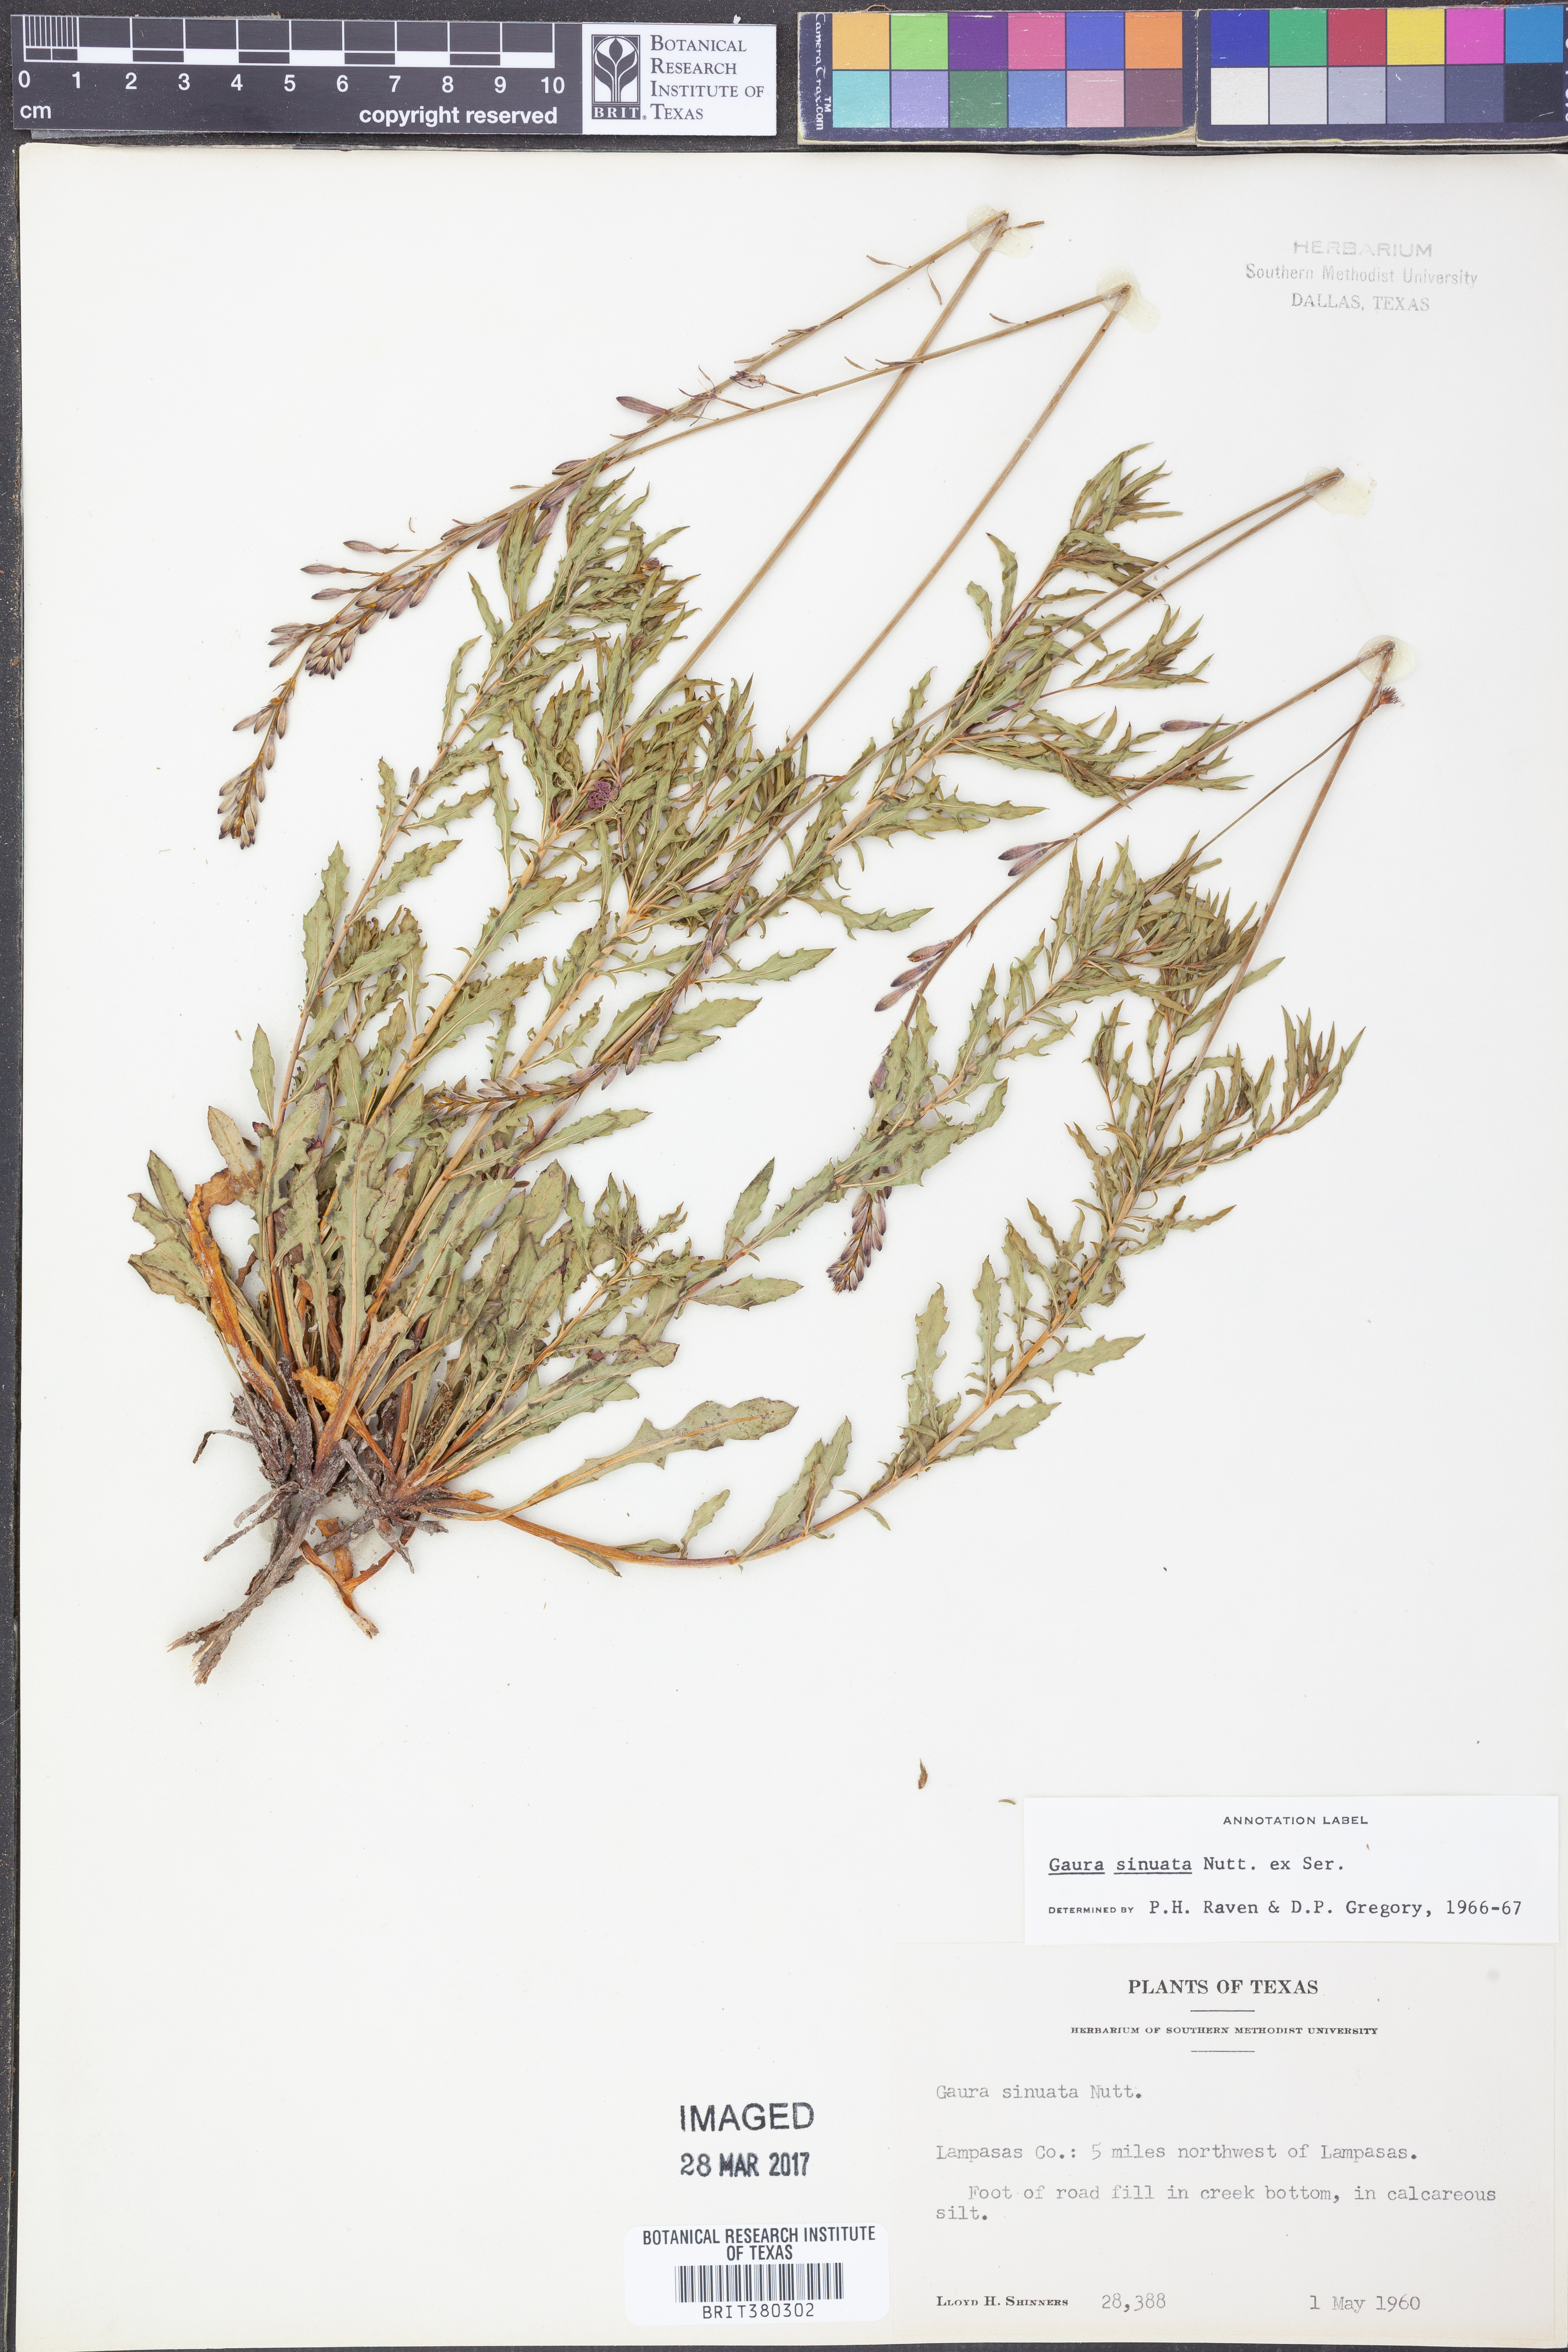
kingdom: Plantae
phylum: Tracheophyta
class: Magnoliopsida
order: Myrtales
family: Onagraceae
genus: Oenothera
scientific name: Oenothera sinuosa
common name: Wavyleaf beeblossom
